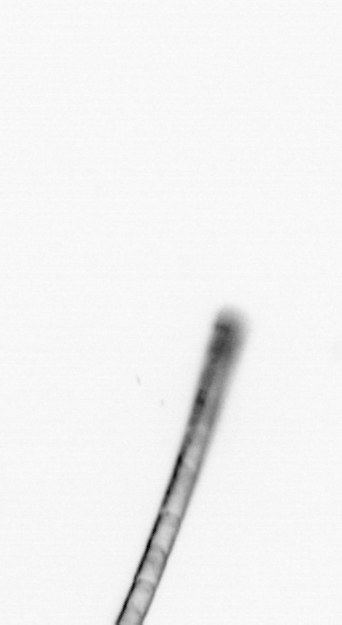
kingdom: Chromista
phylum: Ochrophyta
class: Bacillariophyceae
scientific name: Bacillariophyceae
